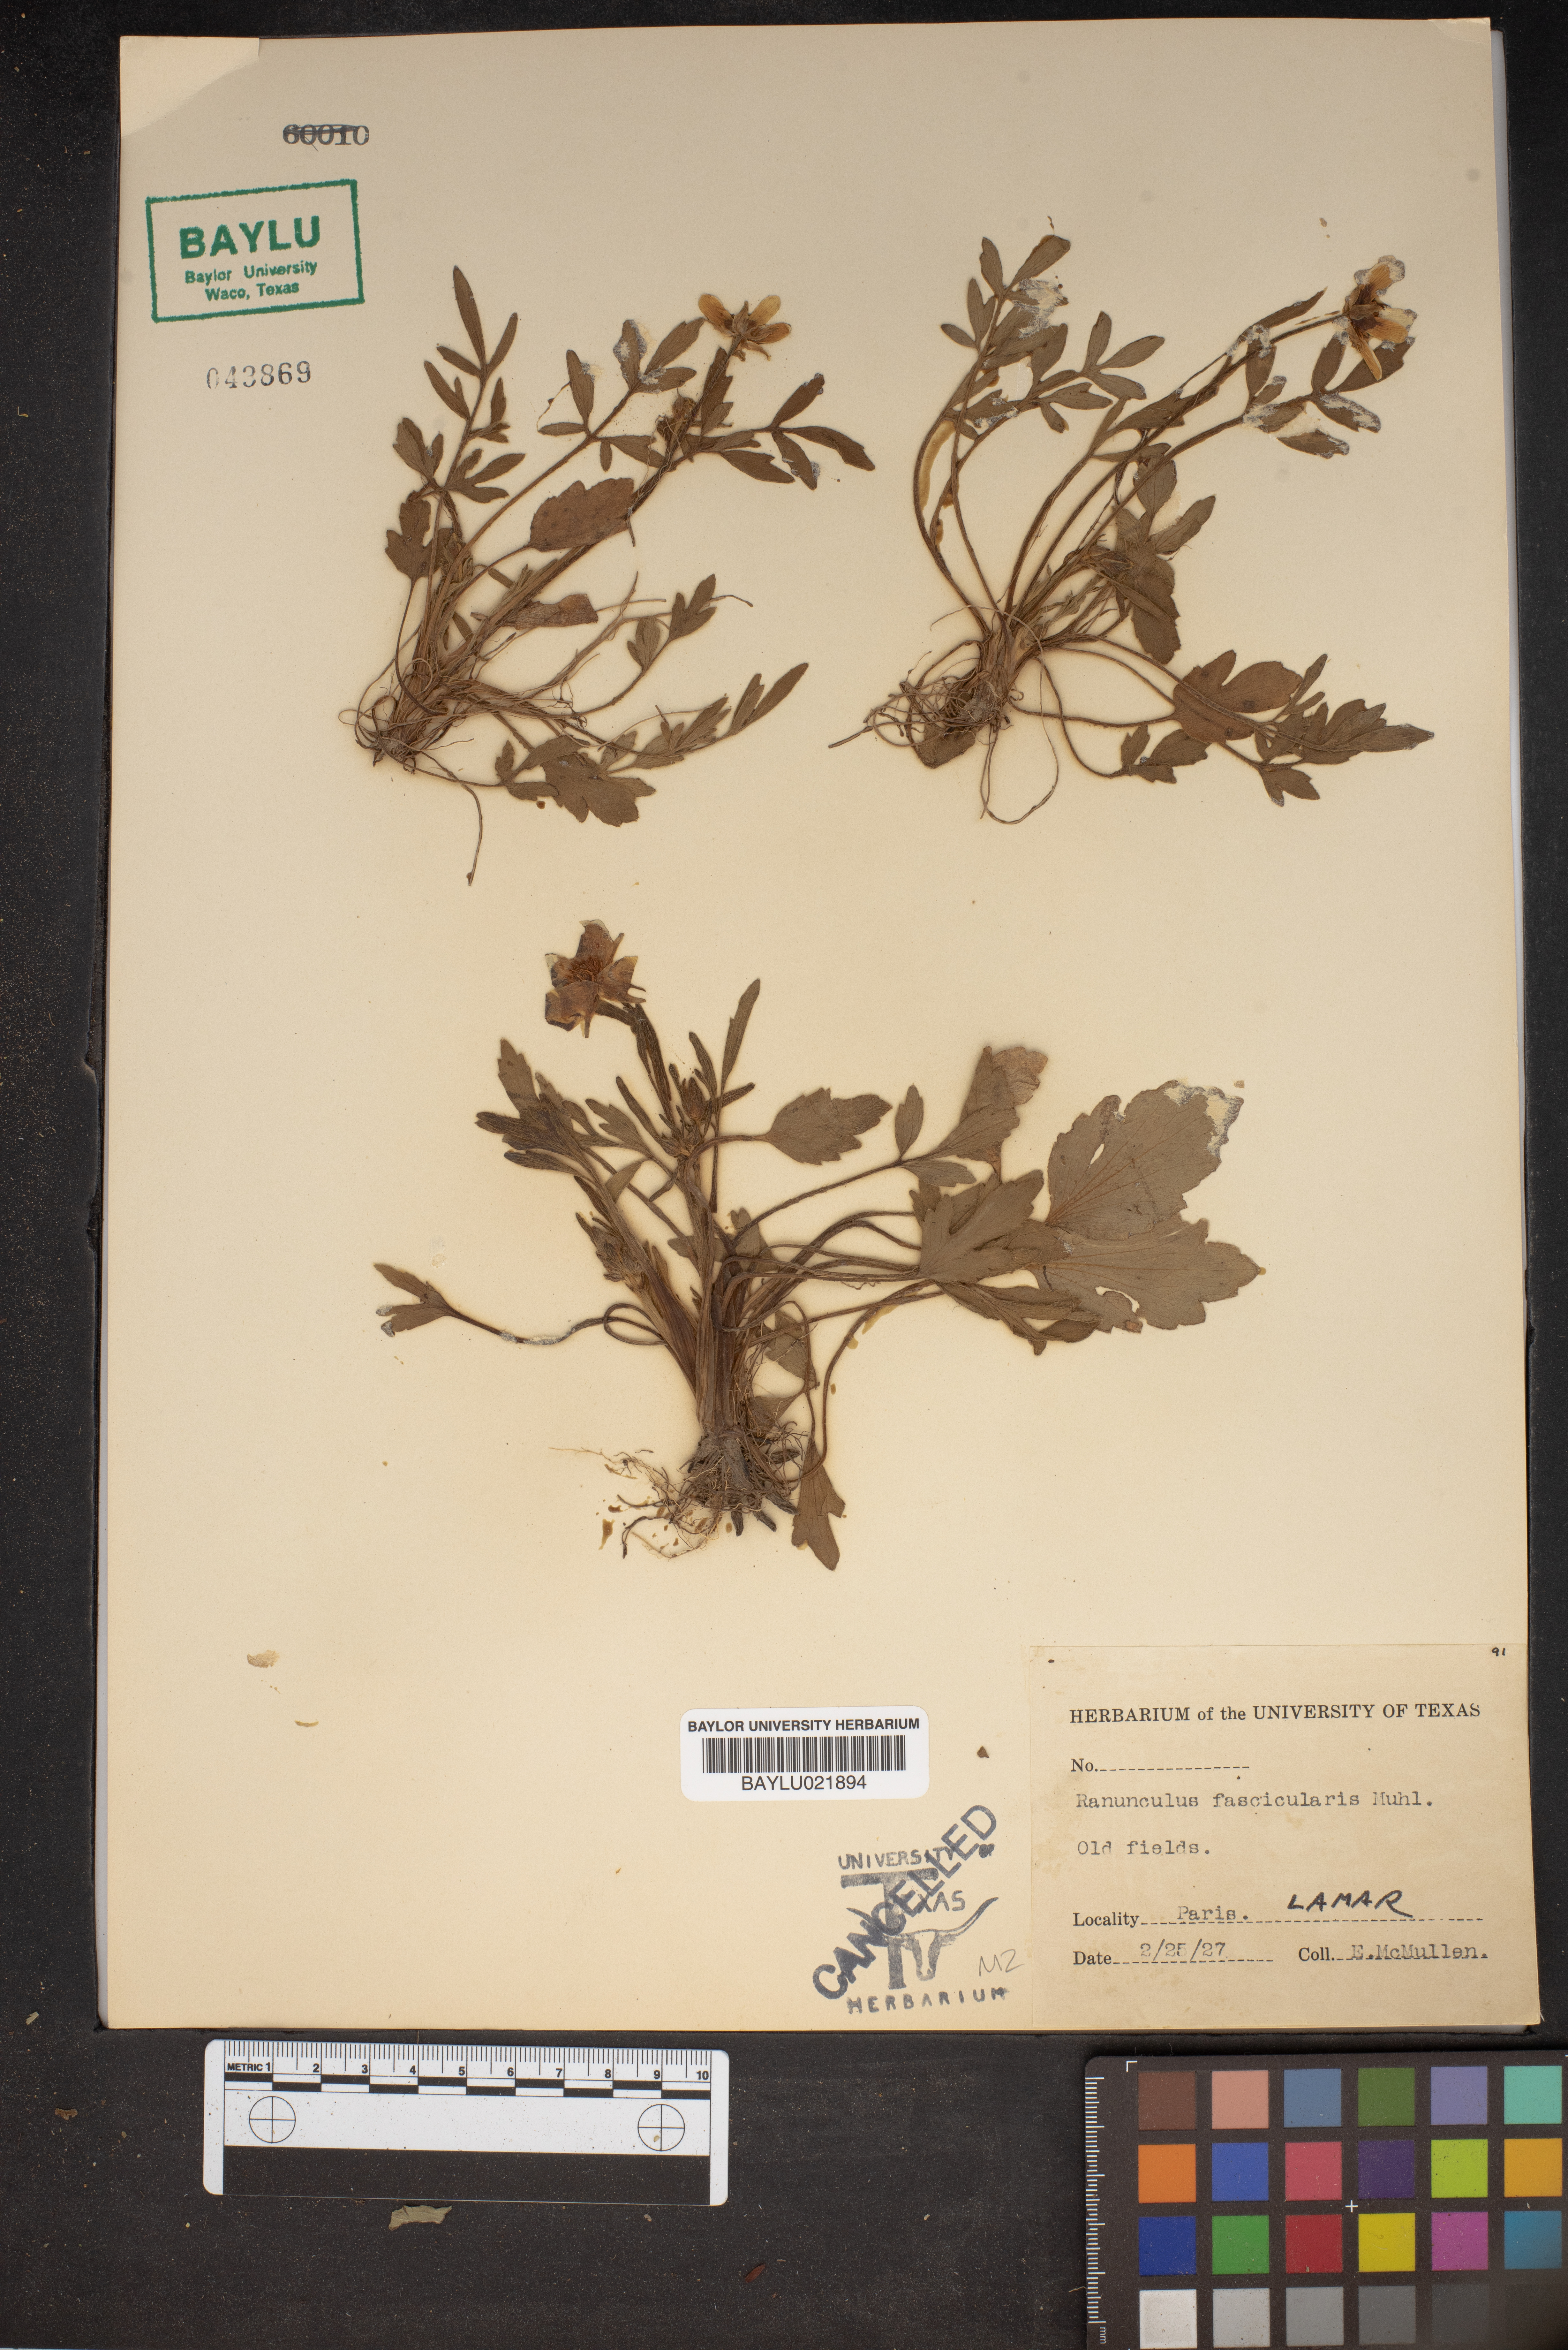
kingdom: Plantae
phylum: Tracheophyta
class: Magnoliopsida
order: Ranunculales
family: Ranunculaceae
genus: Ranunculus
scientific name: Ranunculus fascicularis
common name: Early buttercup
